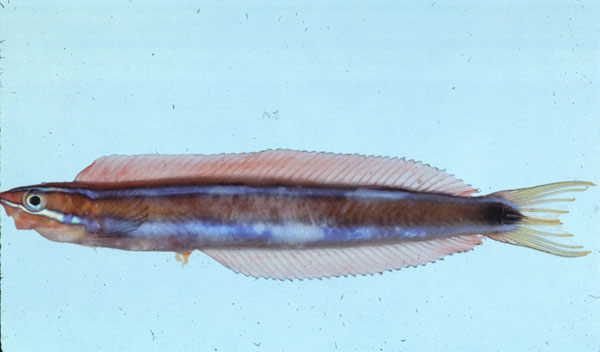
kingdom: Animalia
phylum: Chordata
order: Perciformes
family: Blenniidae
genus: Plagiotremus
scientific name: Plagiotremus rhinorhynchos
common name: Bluestriped fangblenny
